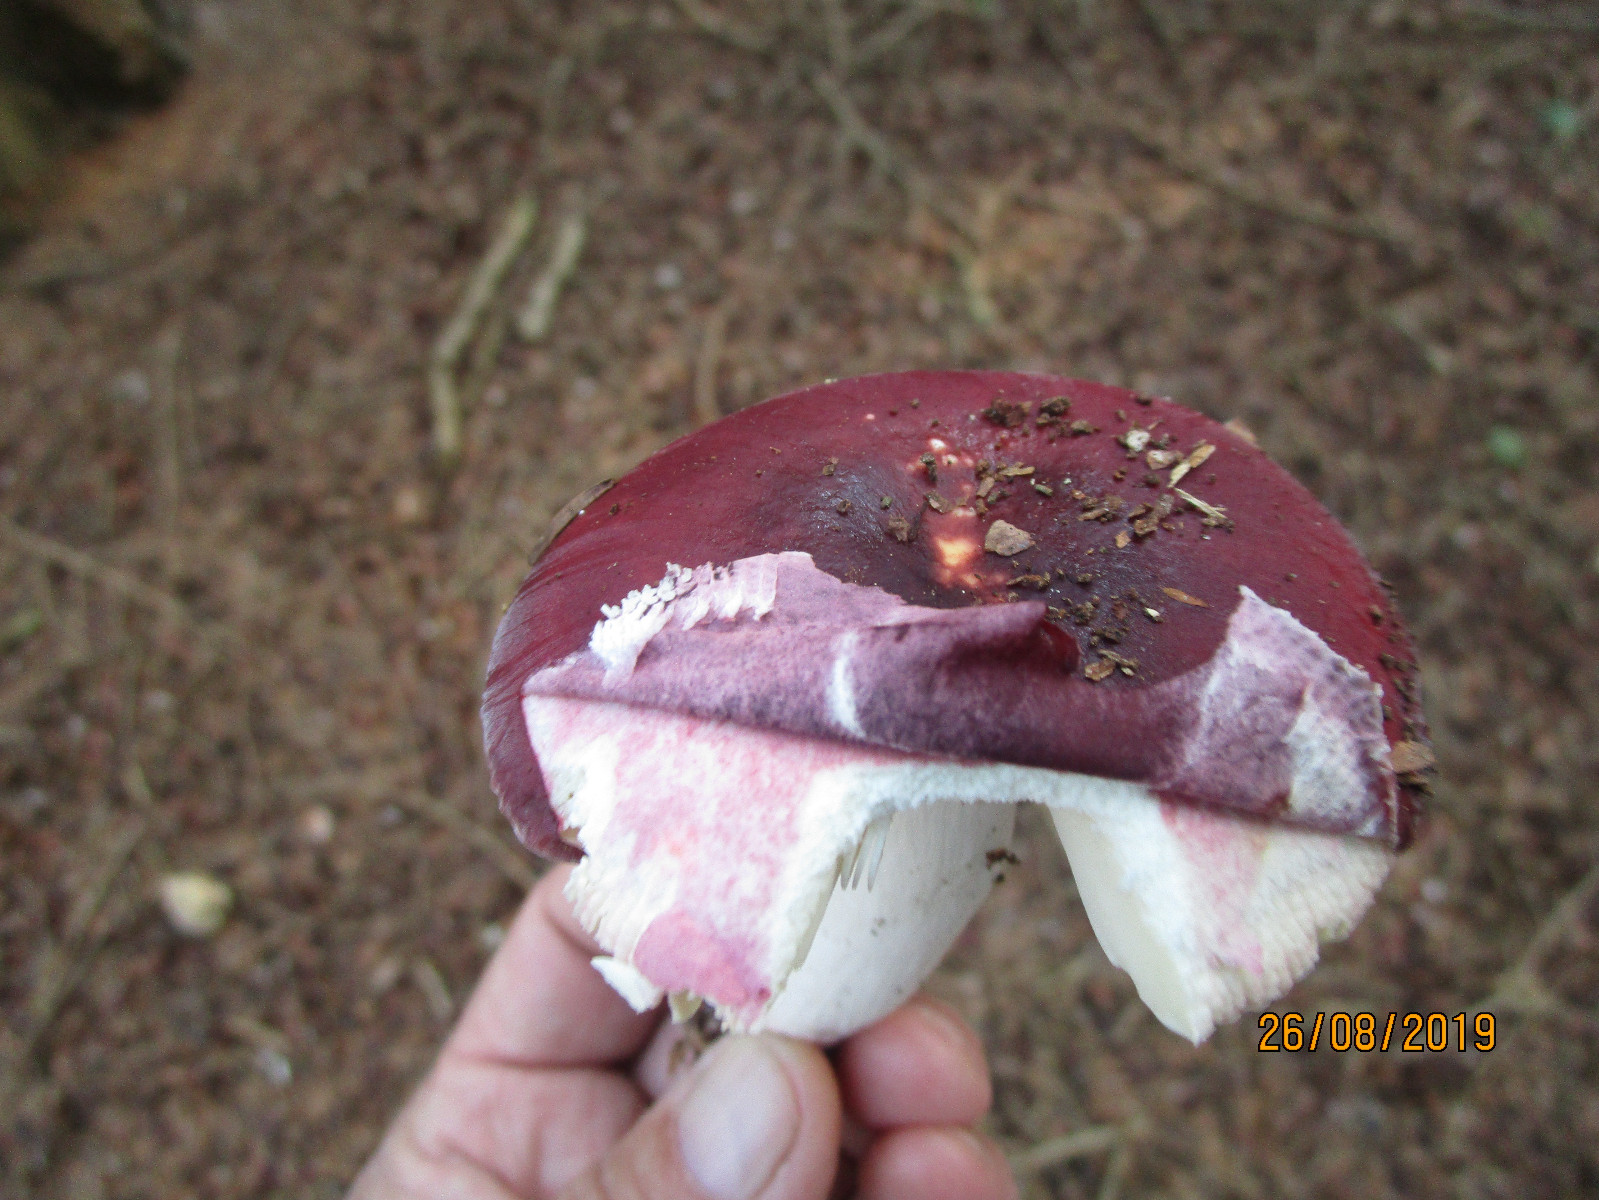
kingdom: Fungi
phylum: Basidiomycota
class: Agaricomycetes
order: Russulales
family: Russulaceae
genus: Russula
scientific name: Russula badia
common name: peber-skørhat
